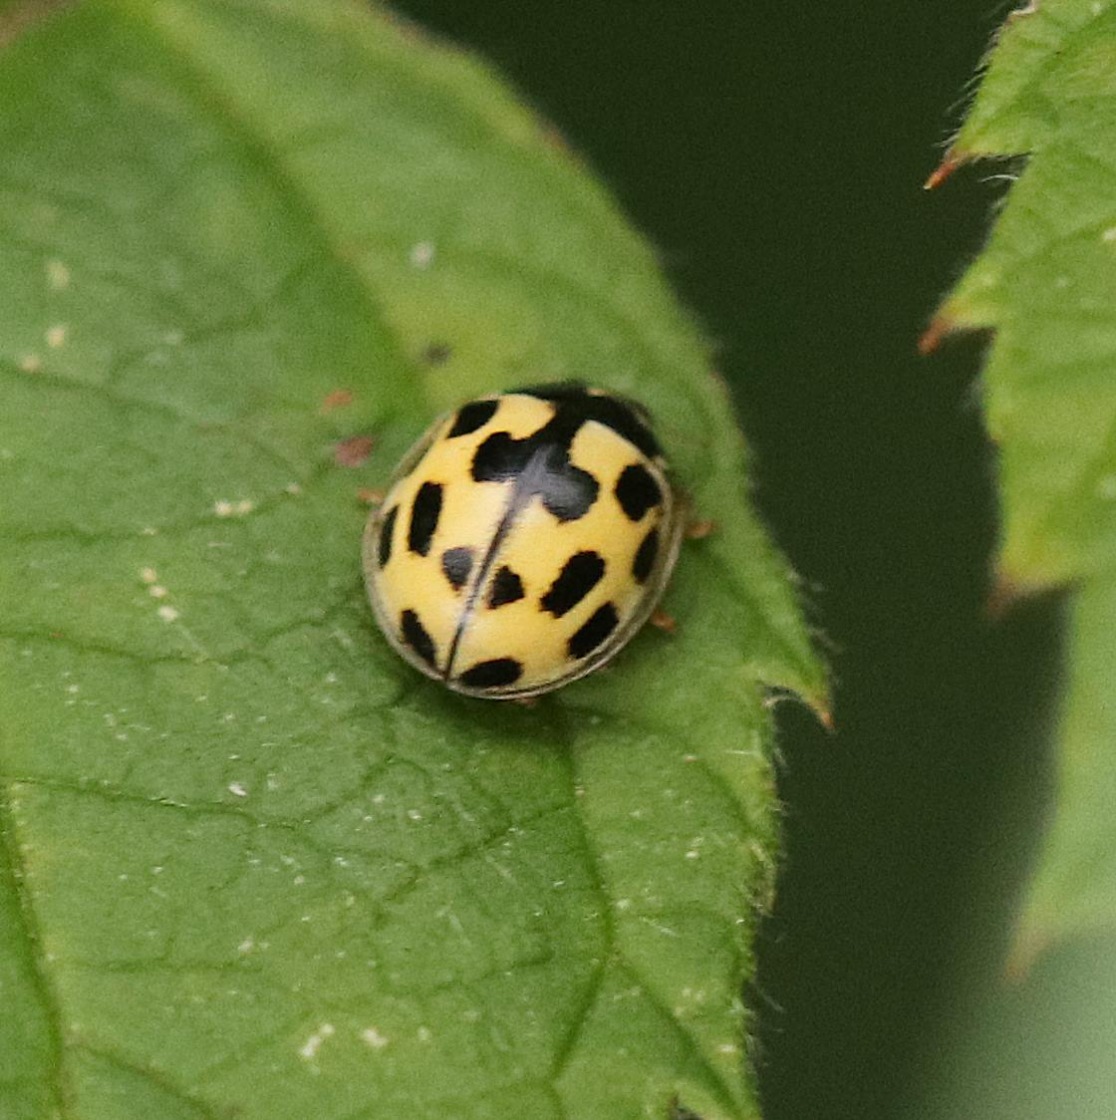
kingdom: Animalia
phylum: Arthropoda
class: Insecta
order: Coleoptera
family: Coccinellidae
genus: Propylaea
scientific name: Propylaea quatuordecimpunctata
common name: Skakbræt
